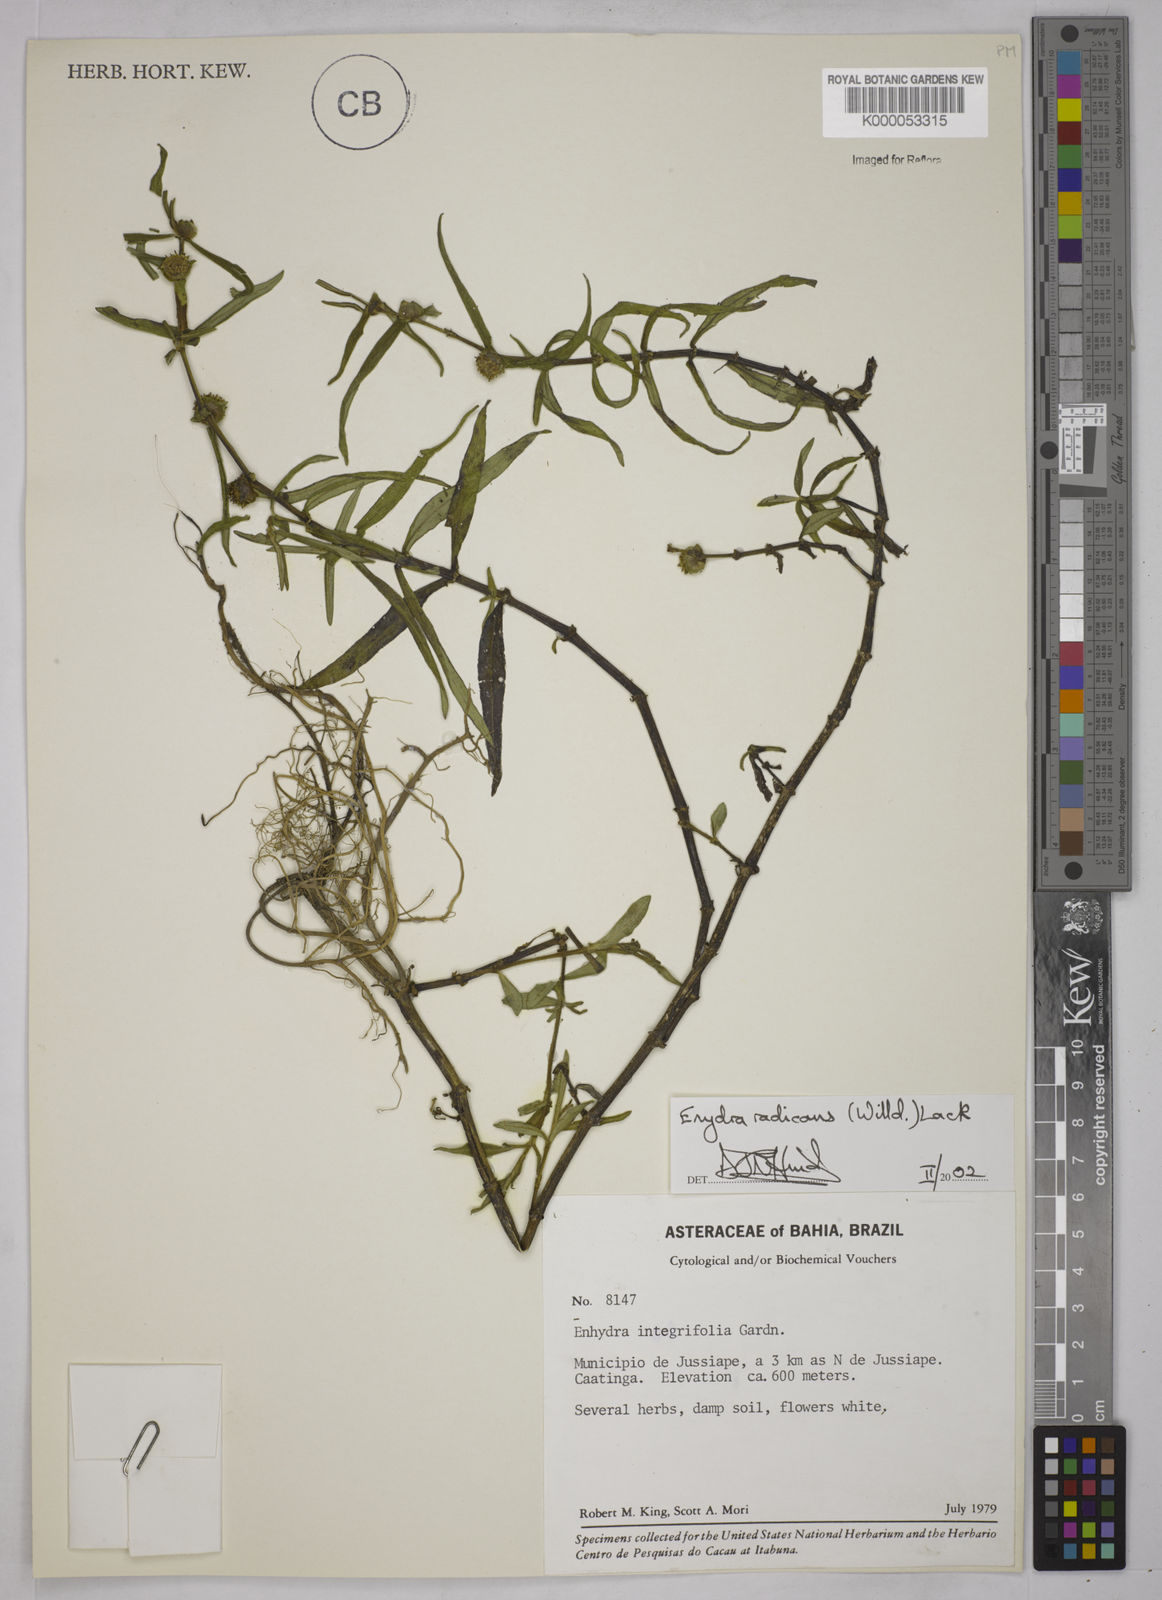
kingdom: Plantae
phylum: Tracheophyta
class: Magnoliopsida
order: Asterales
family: Asteraceae
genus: Enydra
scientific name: Enydra radicans
